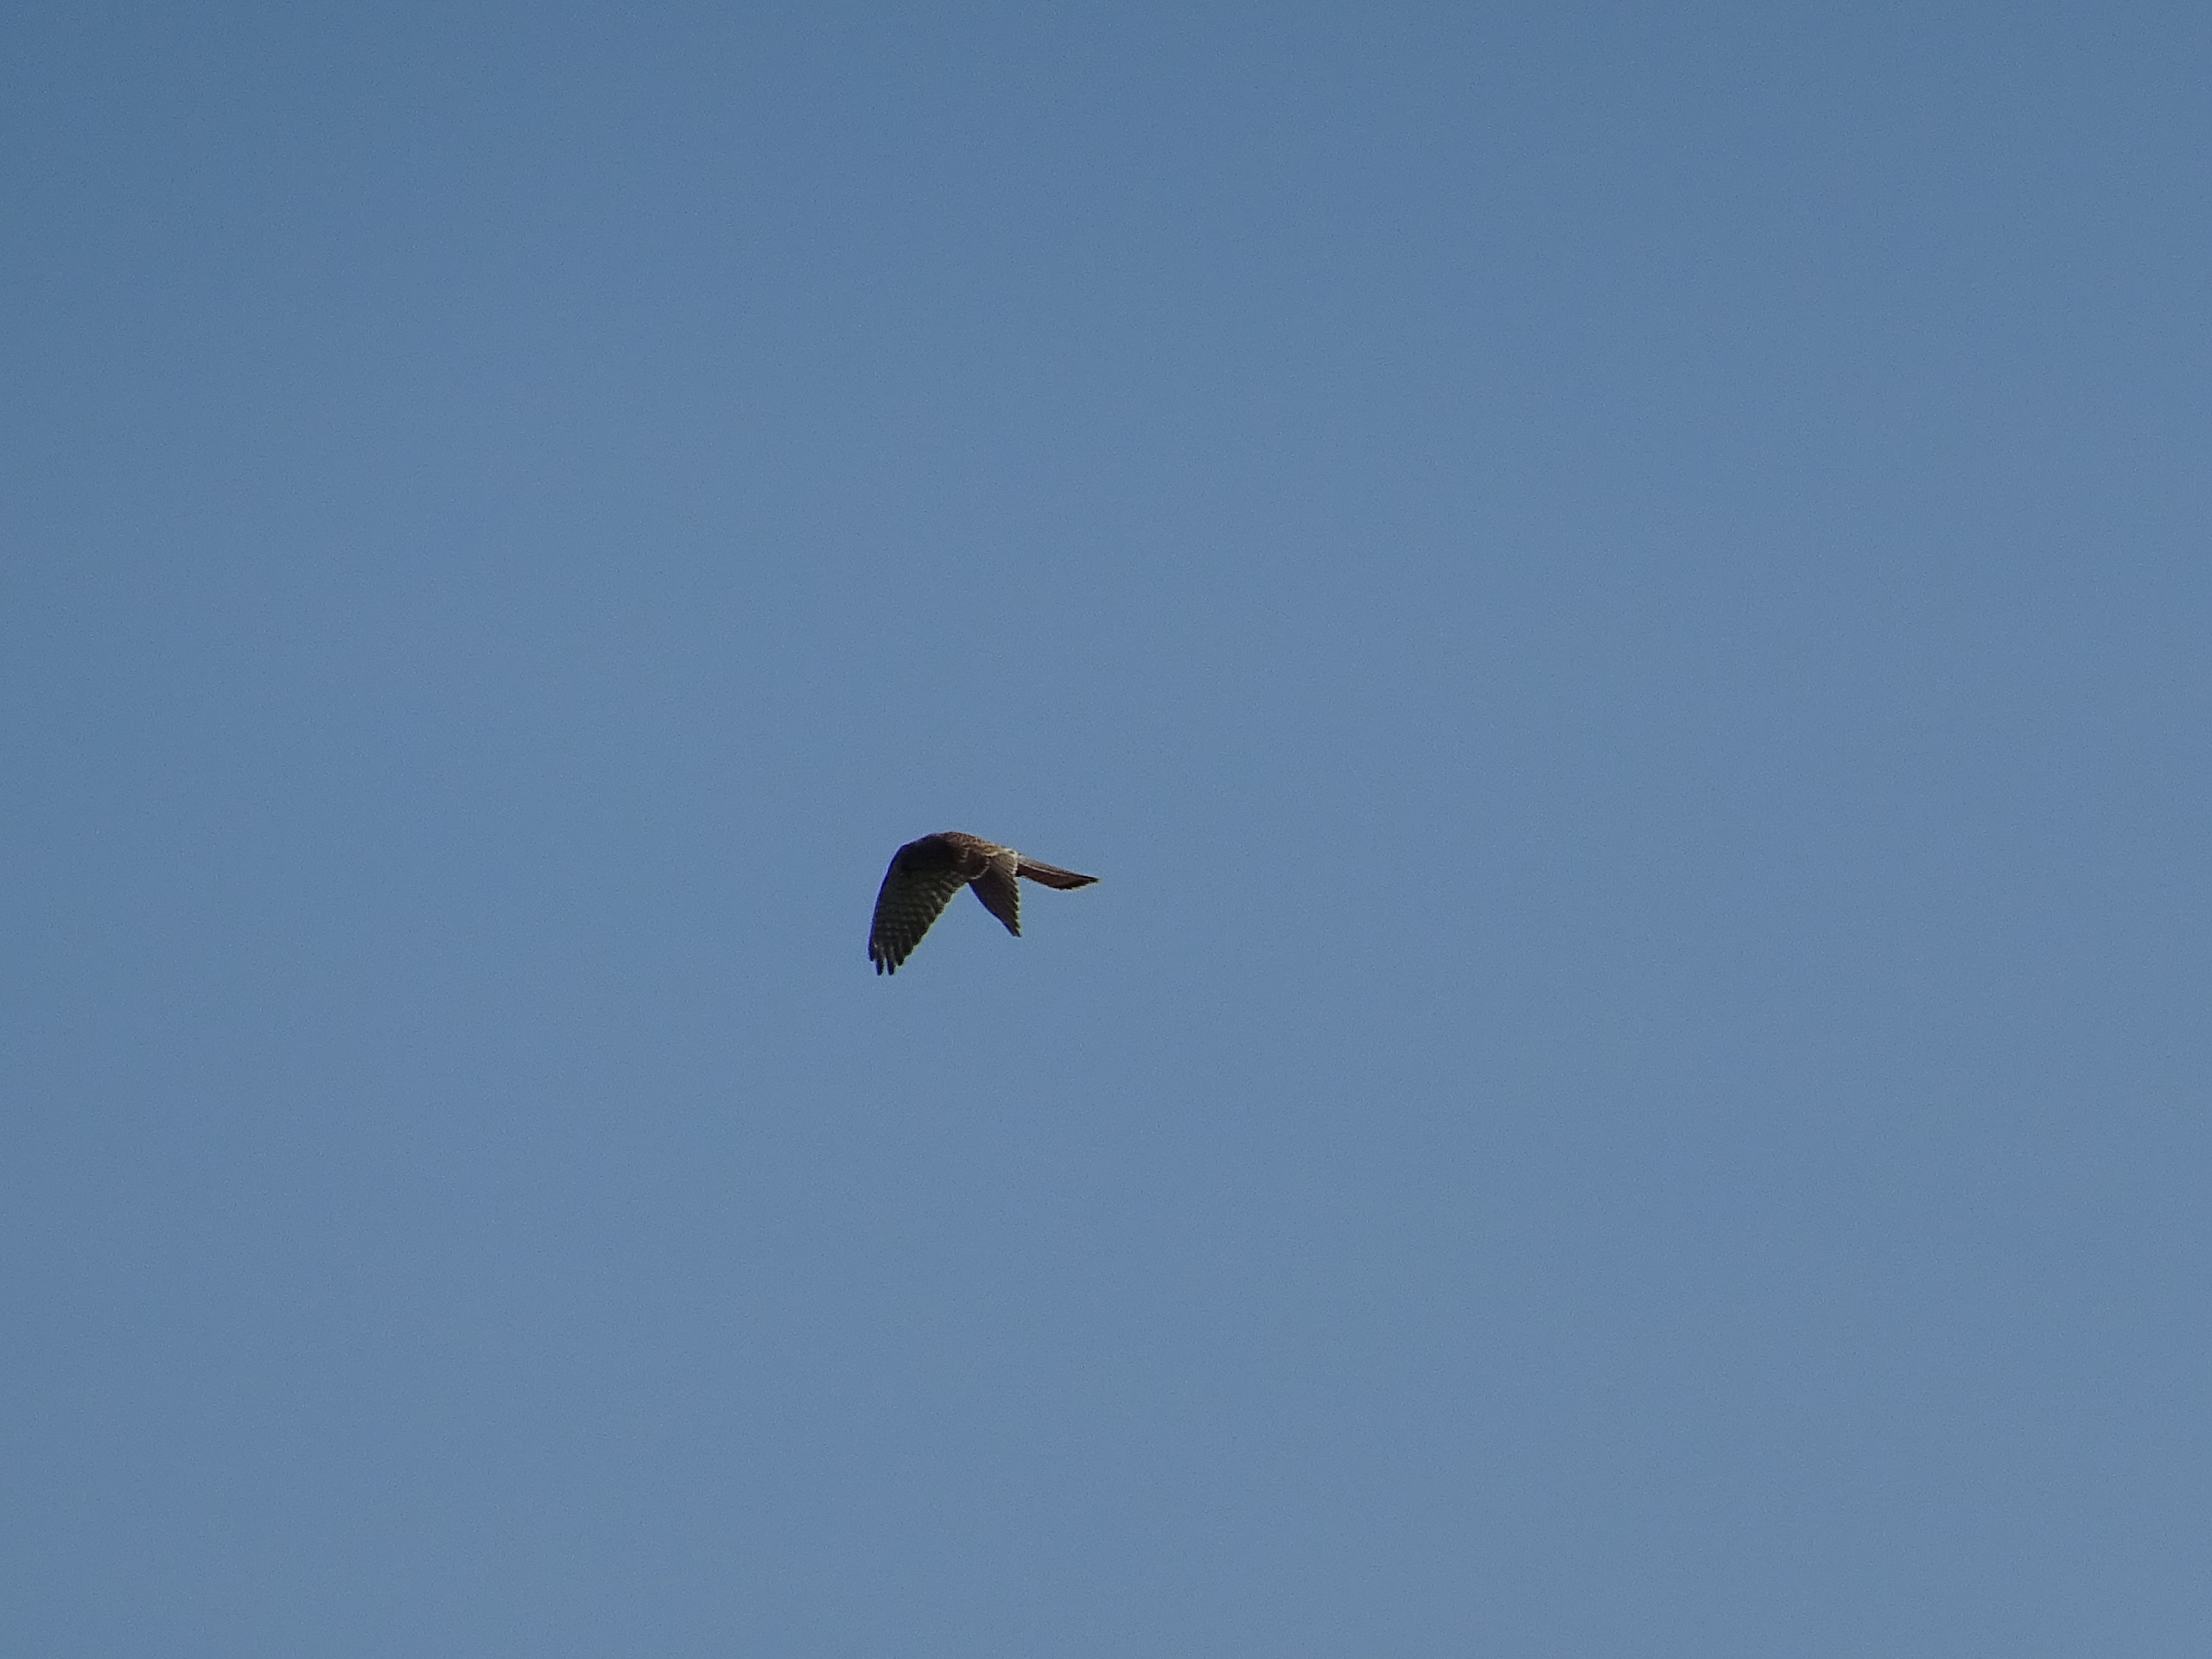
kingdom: Animalia
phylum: Chordata
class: Aves
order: Falconiformes
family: Falconidae
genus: Falco
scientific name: Falco tinnunculus
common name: Tårnfalk
